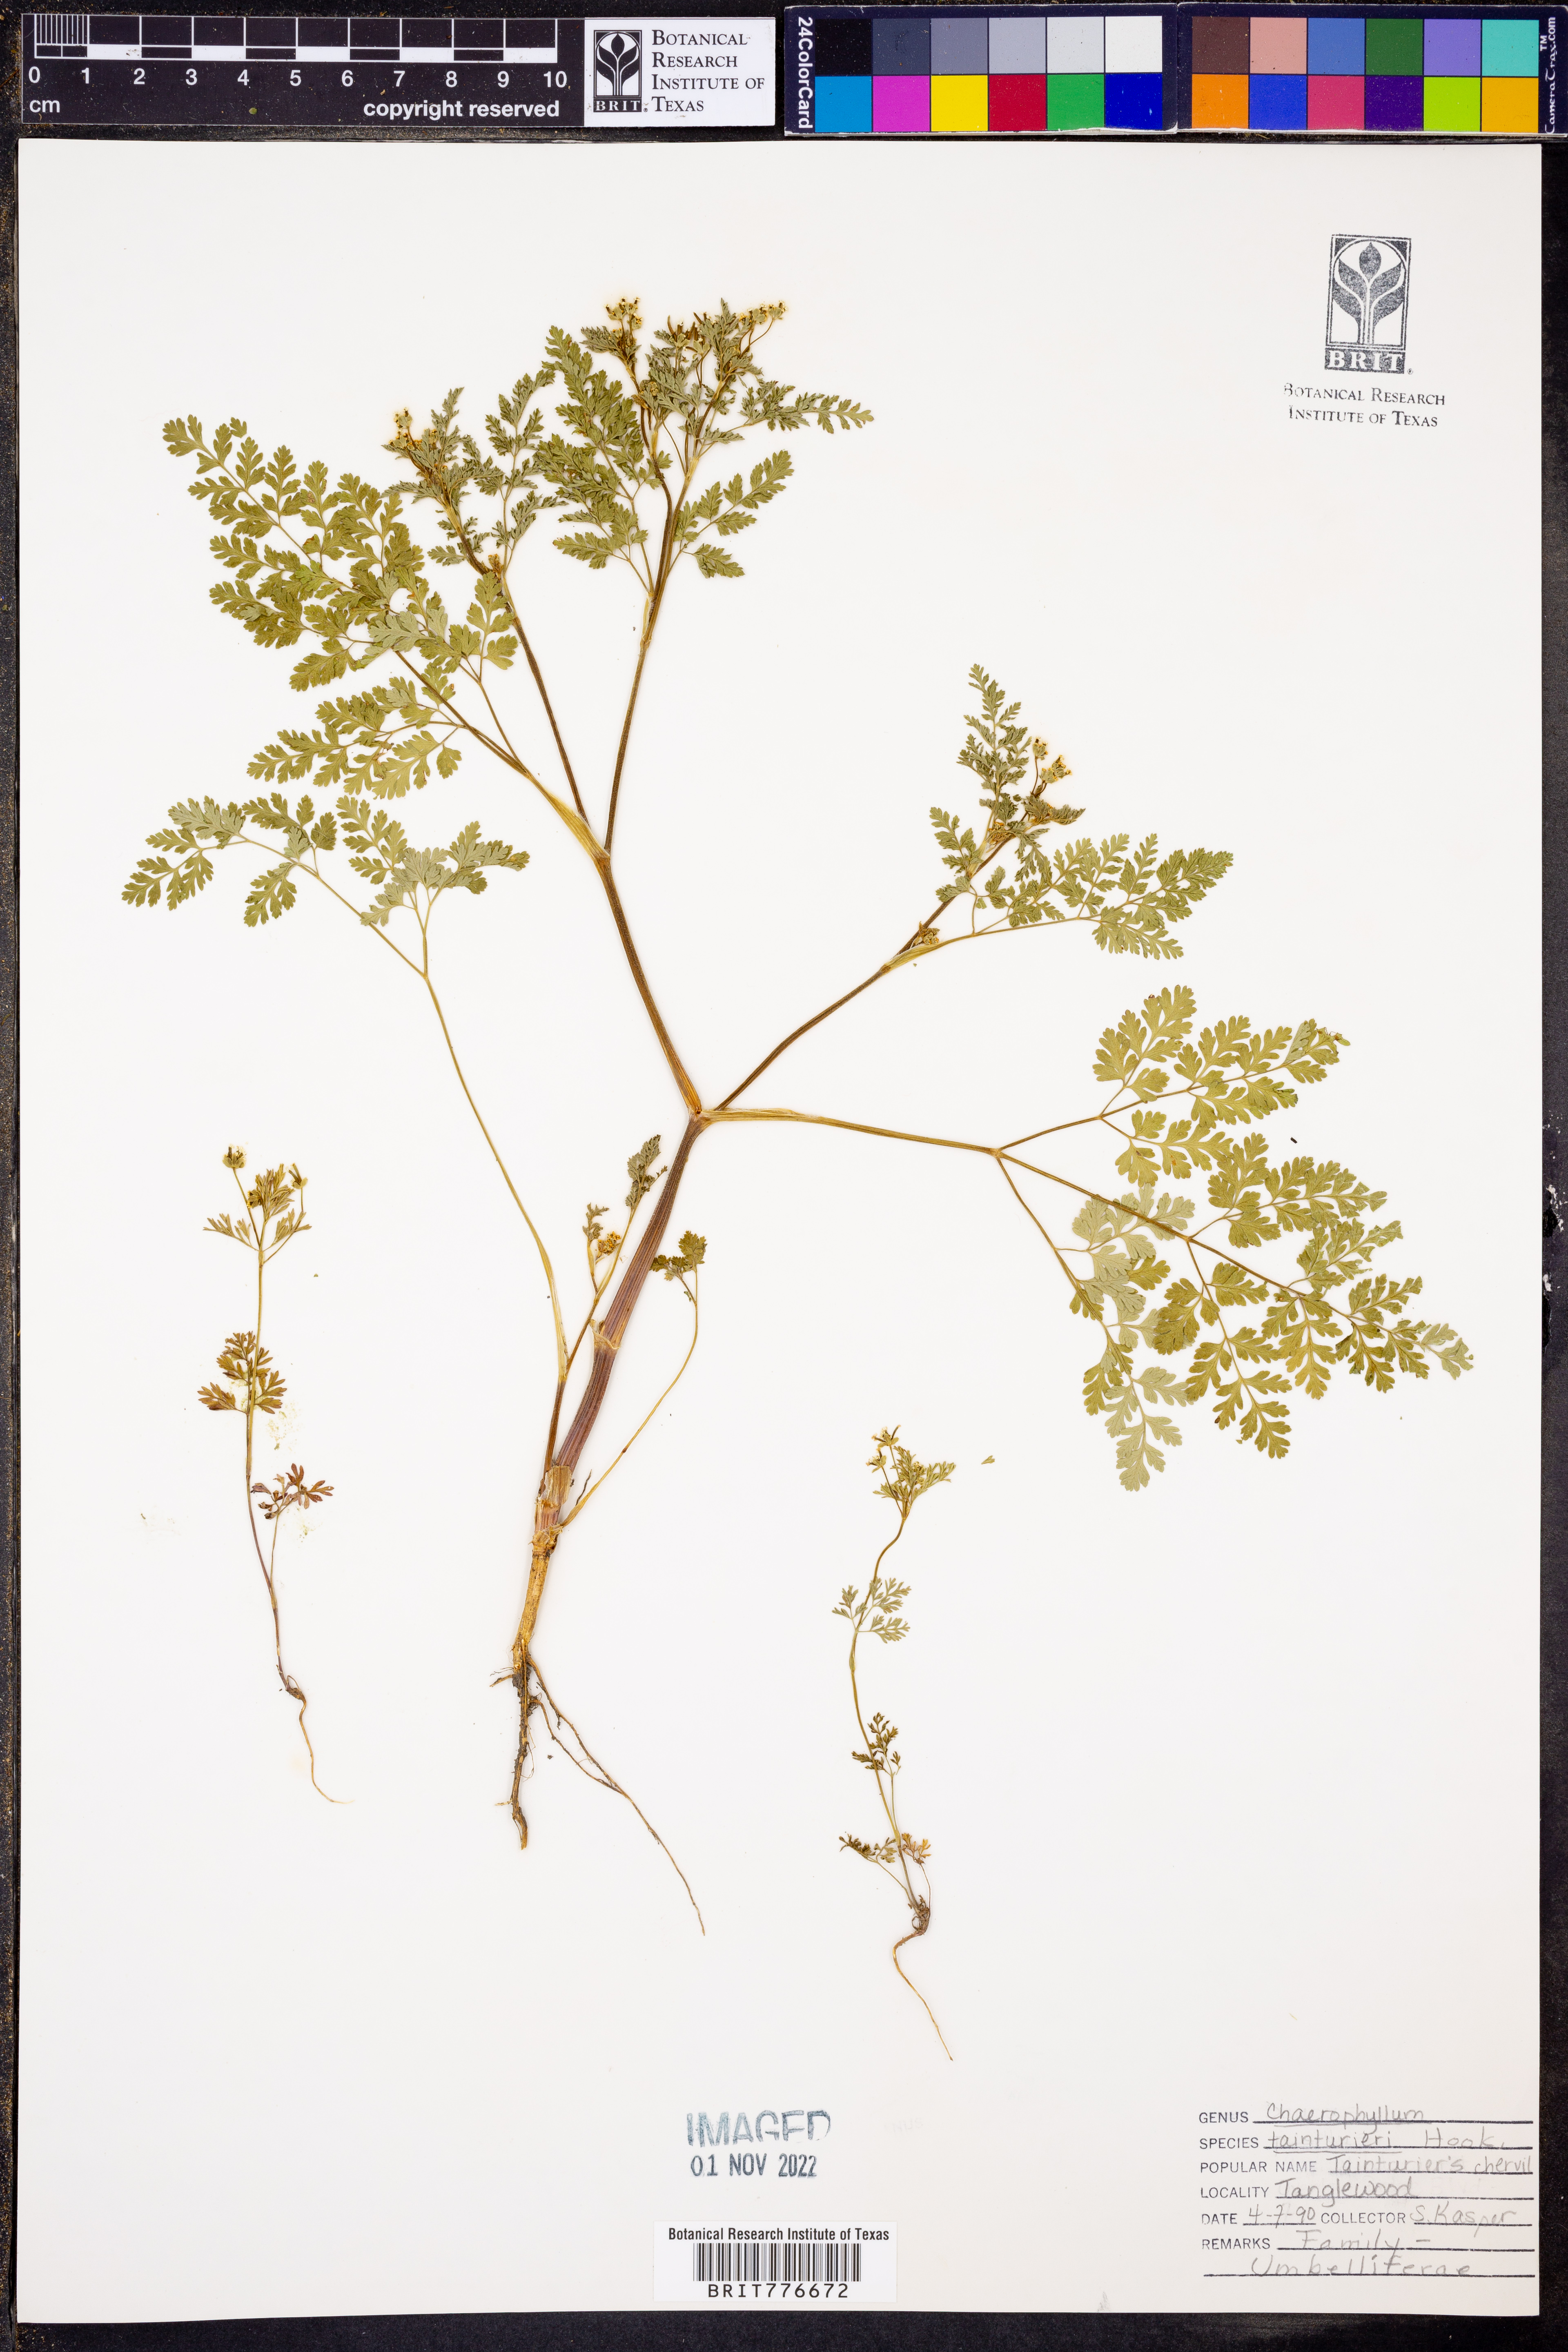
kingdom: Plantae
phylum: Tracheophyta
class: Magnoliopsida
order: Apiales
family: Apiaceae
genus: Chaerophyllum
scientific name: Chaerophyllum tainturieri
